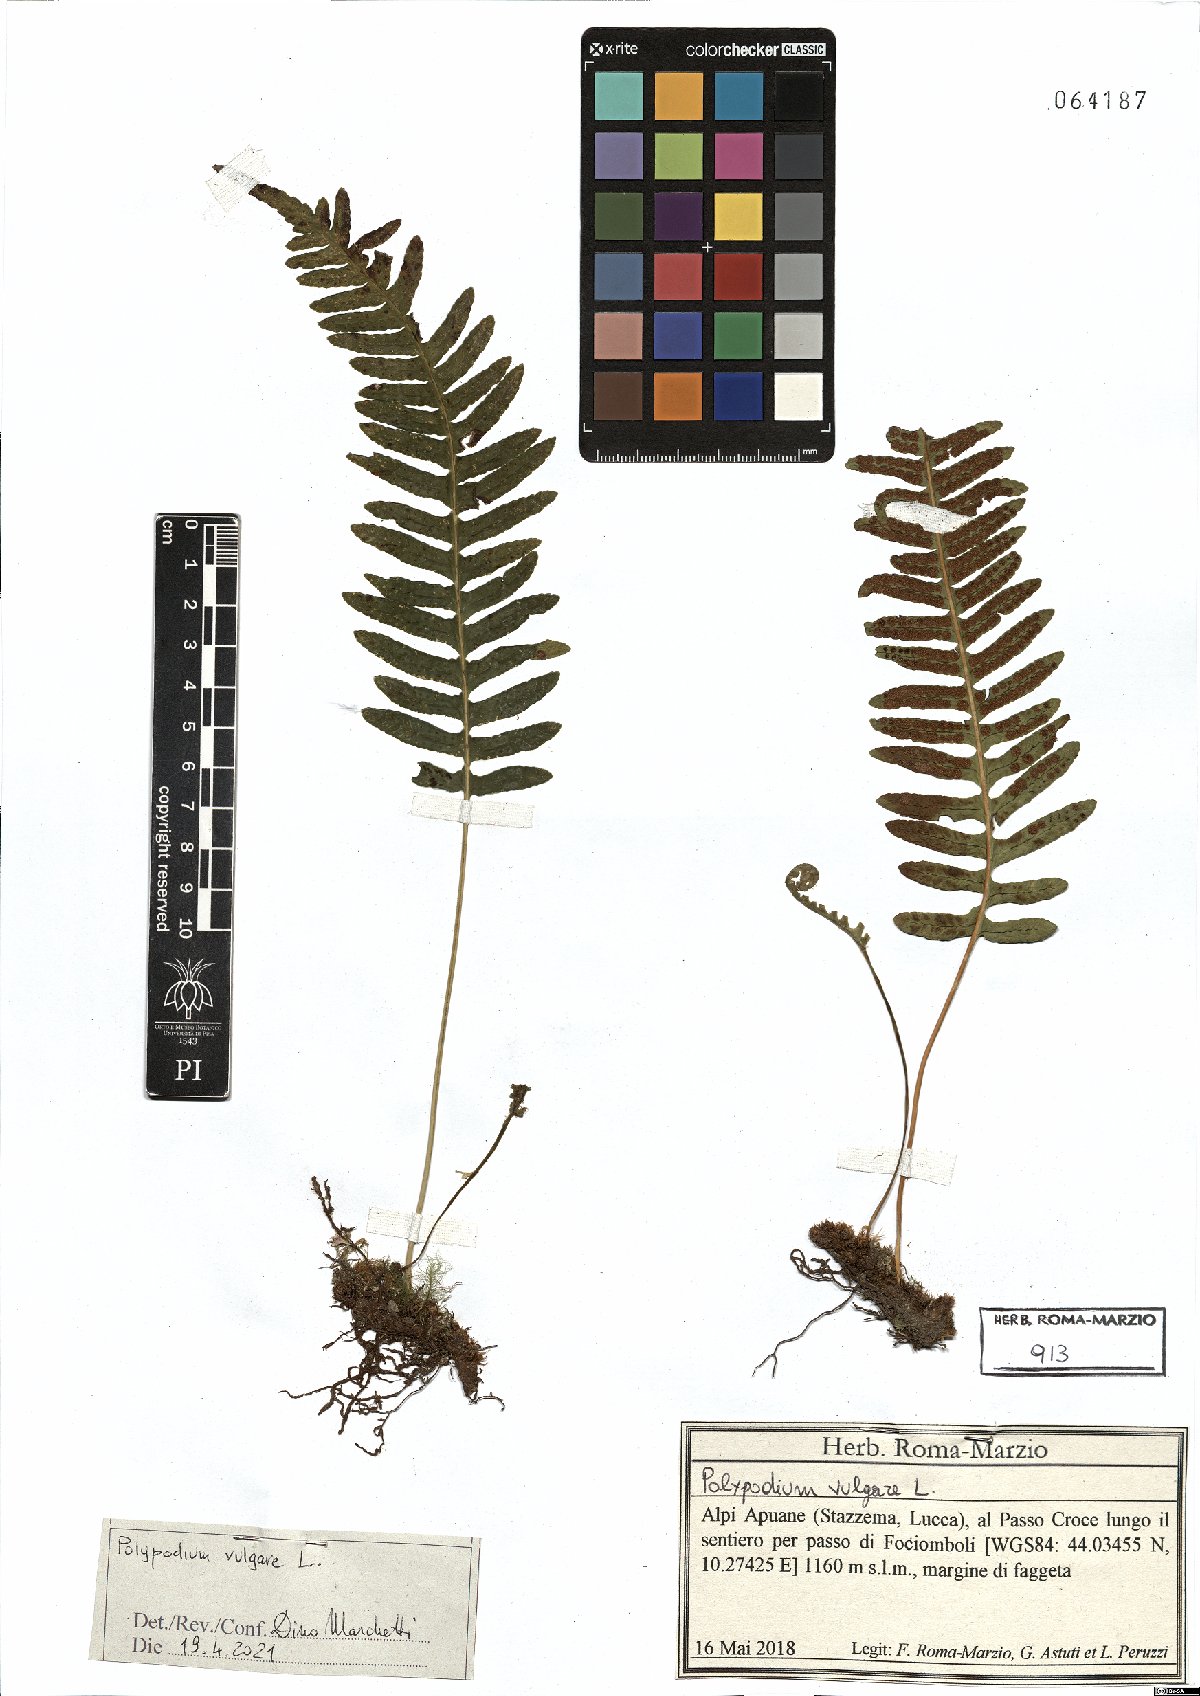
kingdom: Plantae
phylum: Tracheophyta
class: Polypodiopsida
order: Polypodiales
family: Polypodiaceae
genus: Polypodium
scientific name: Polypodium vulgare
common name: Common polypody
